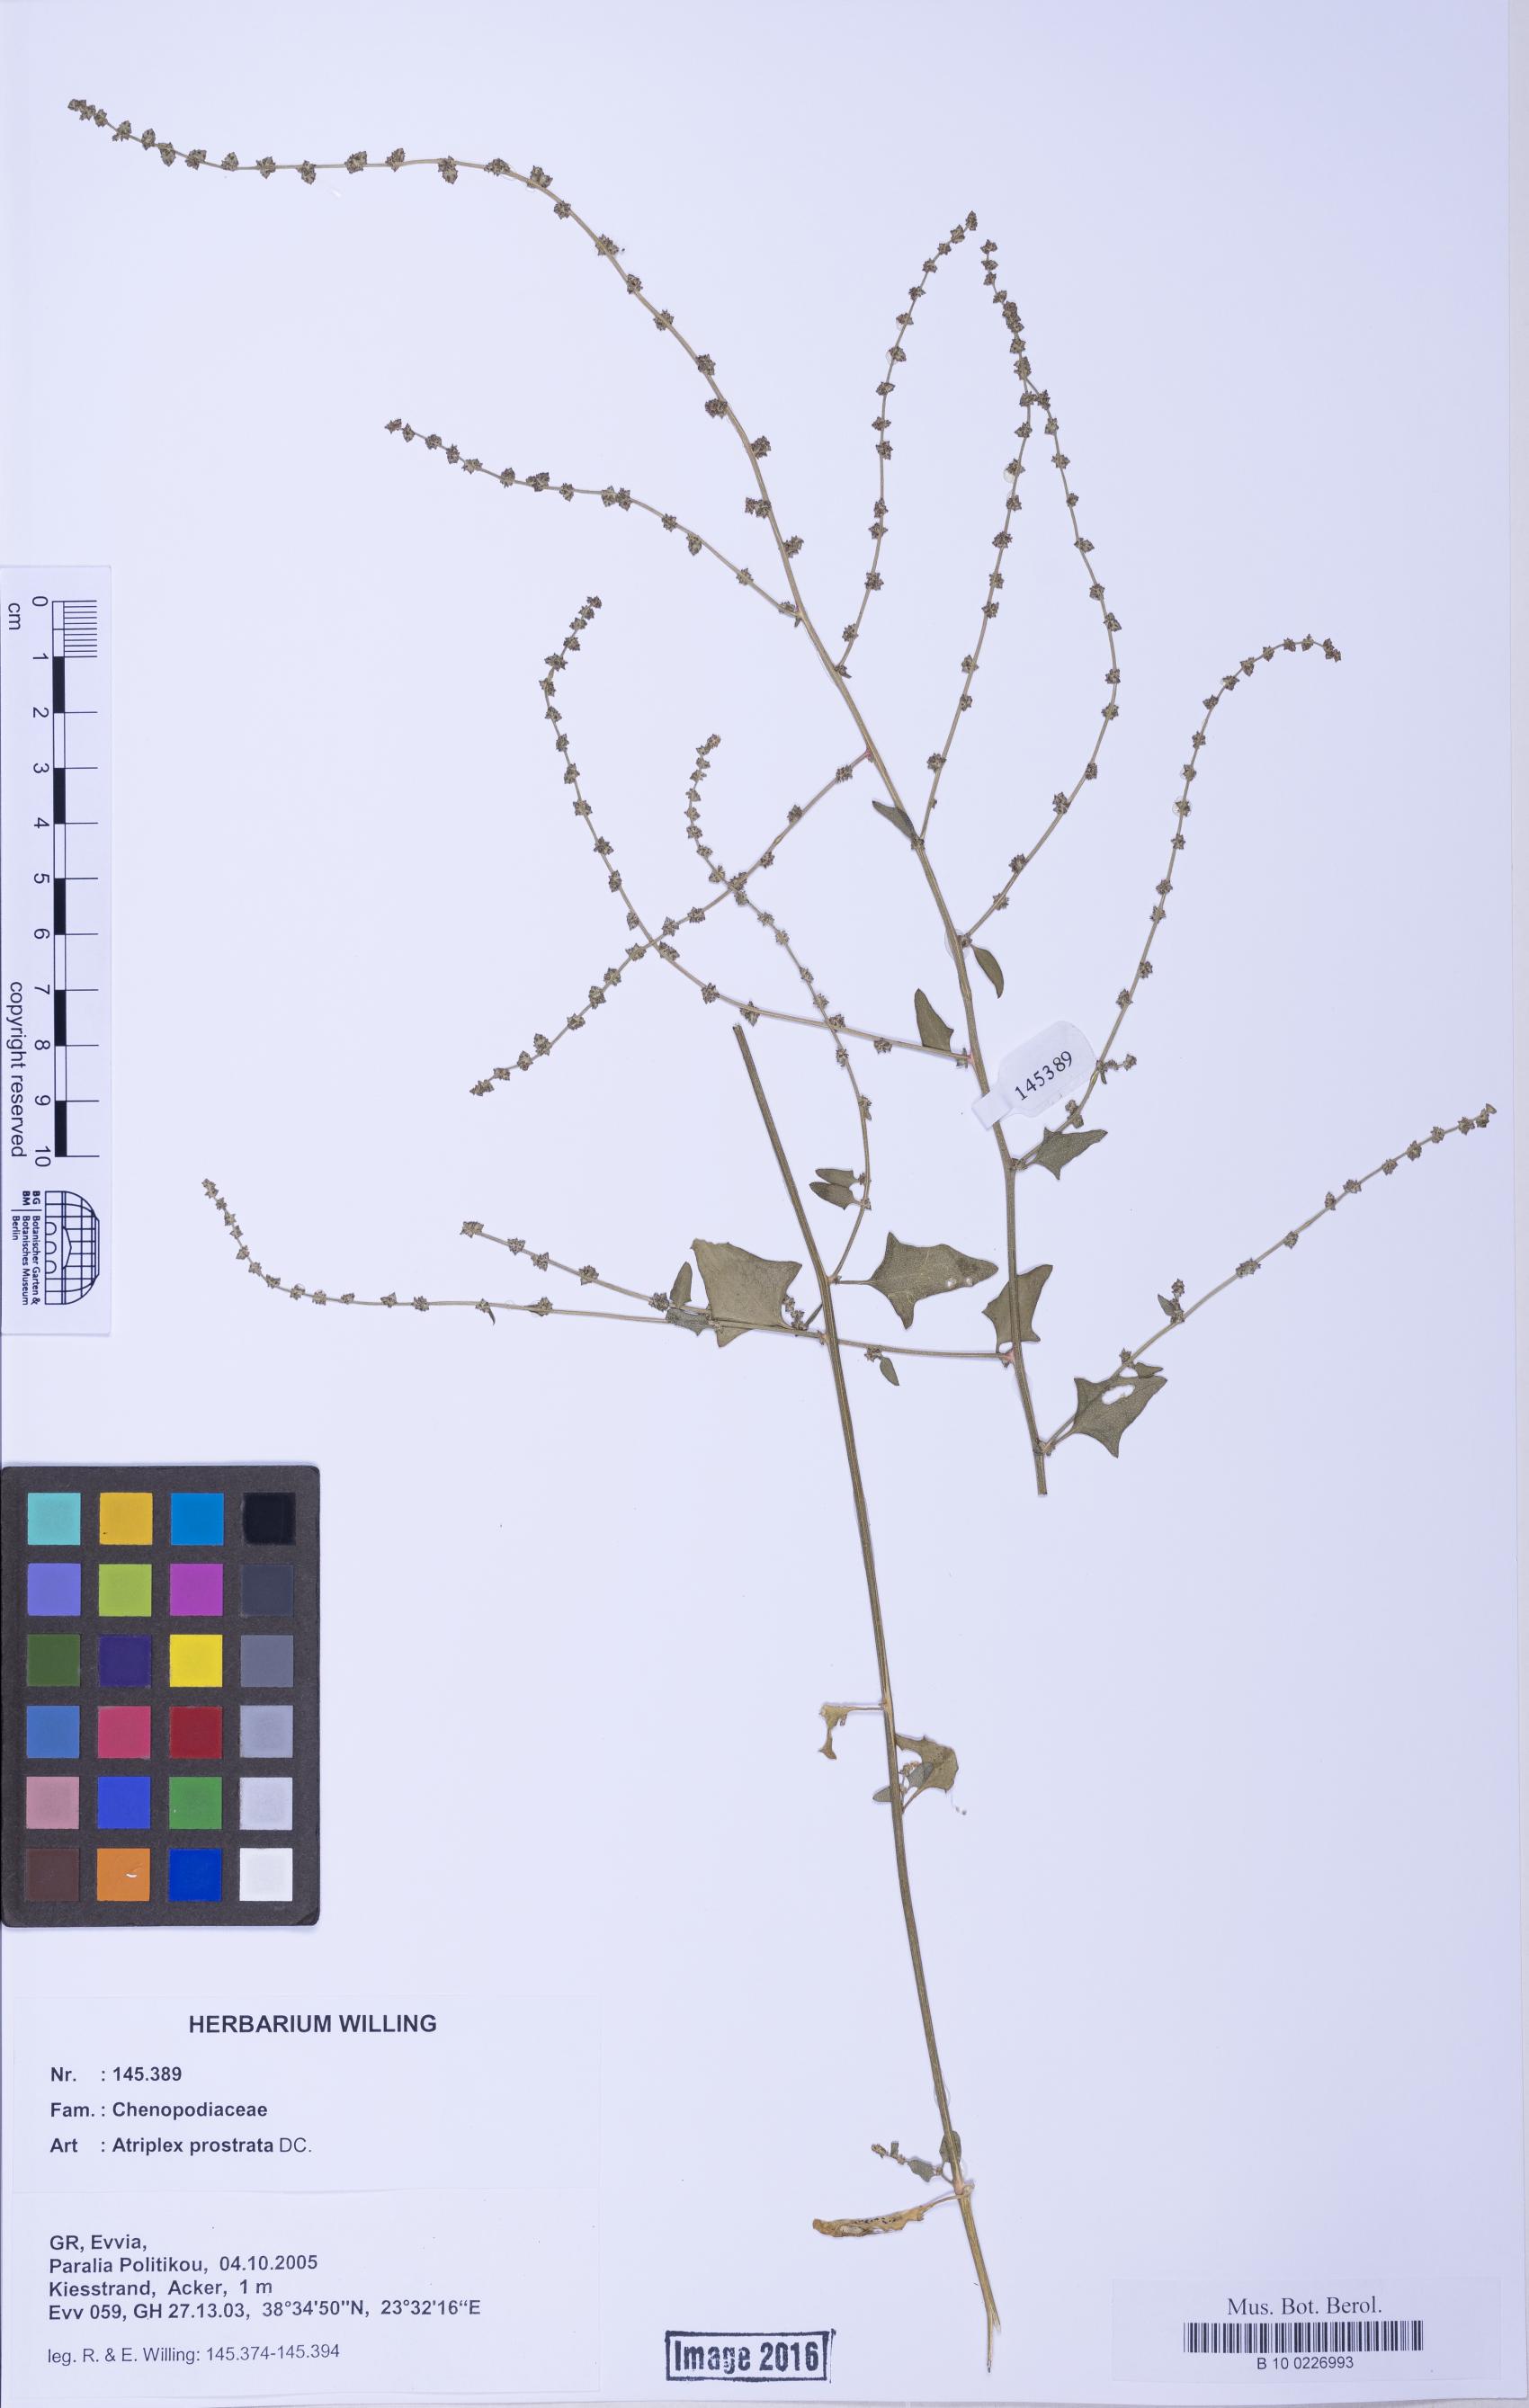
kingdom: Plantae
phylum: Tracheophyta
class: Magnoliopsida
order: Caryophyllales
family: Amaranthaceae
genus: Atriplex
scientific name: Atriplex prostrata
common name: Spear-leaved orache
